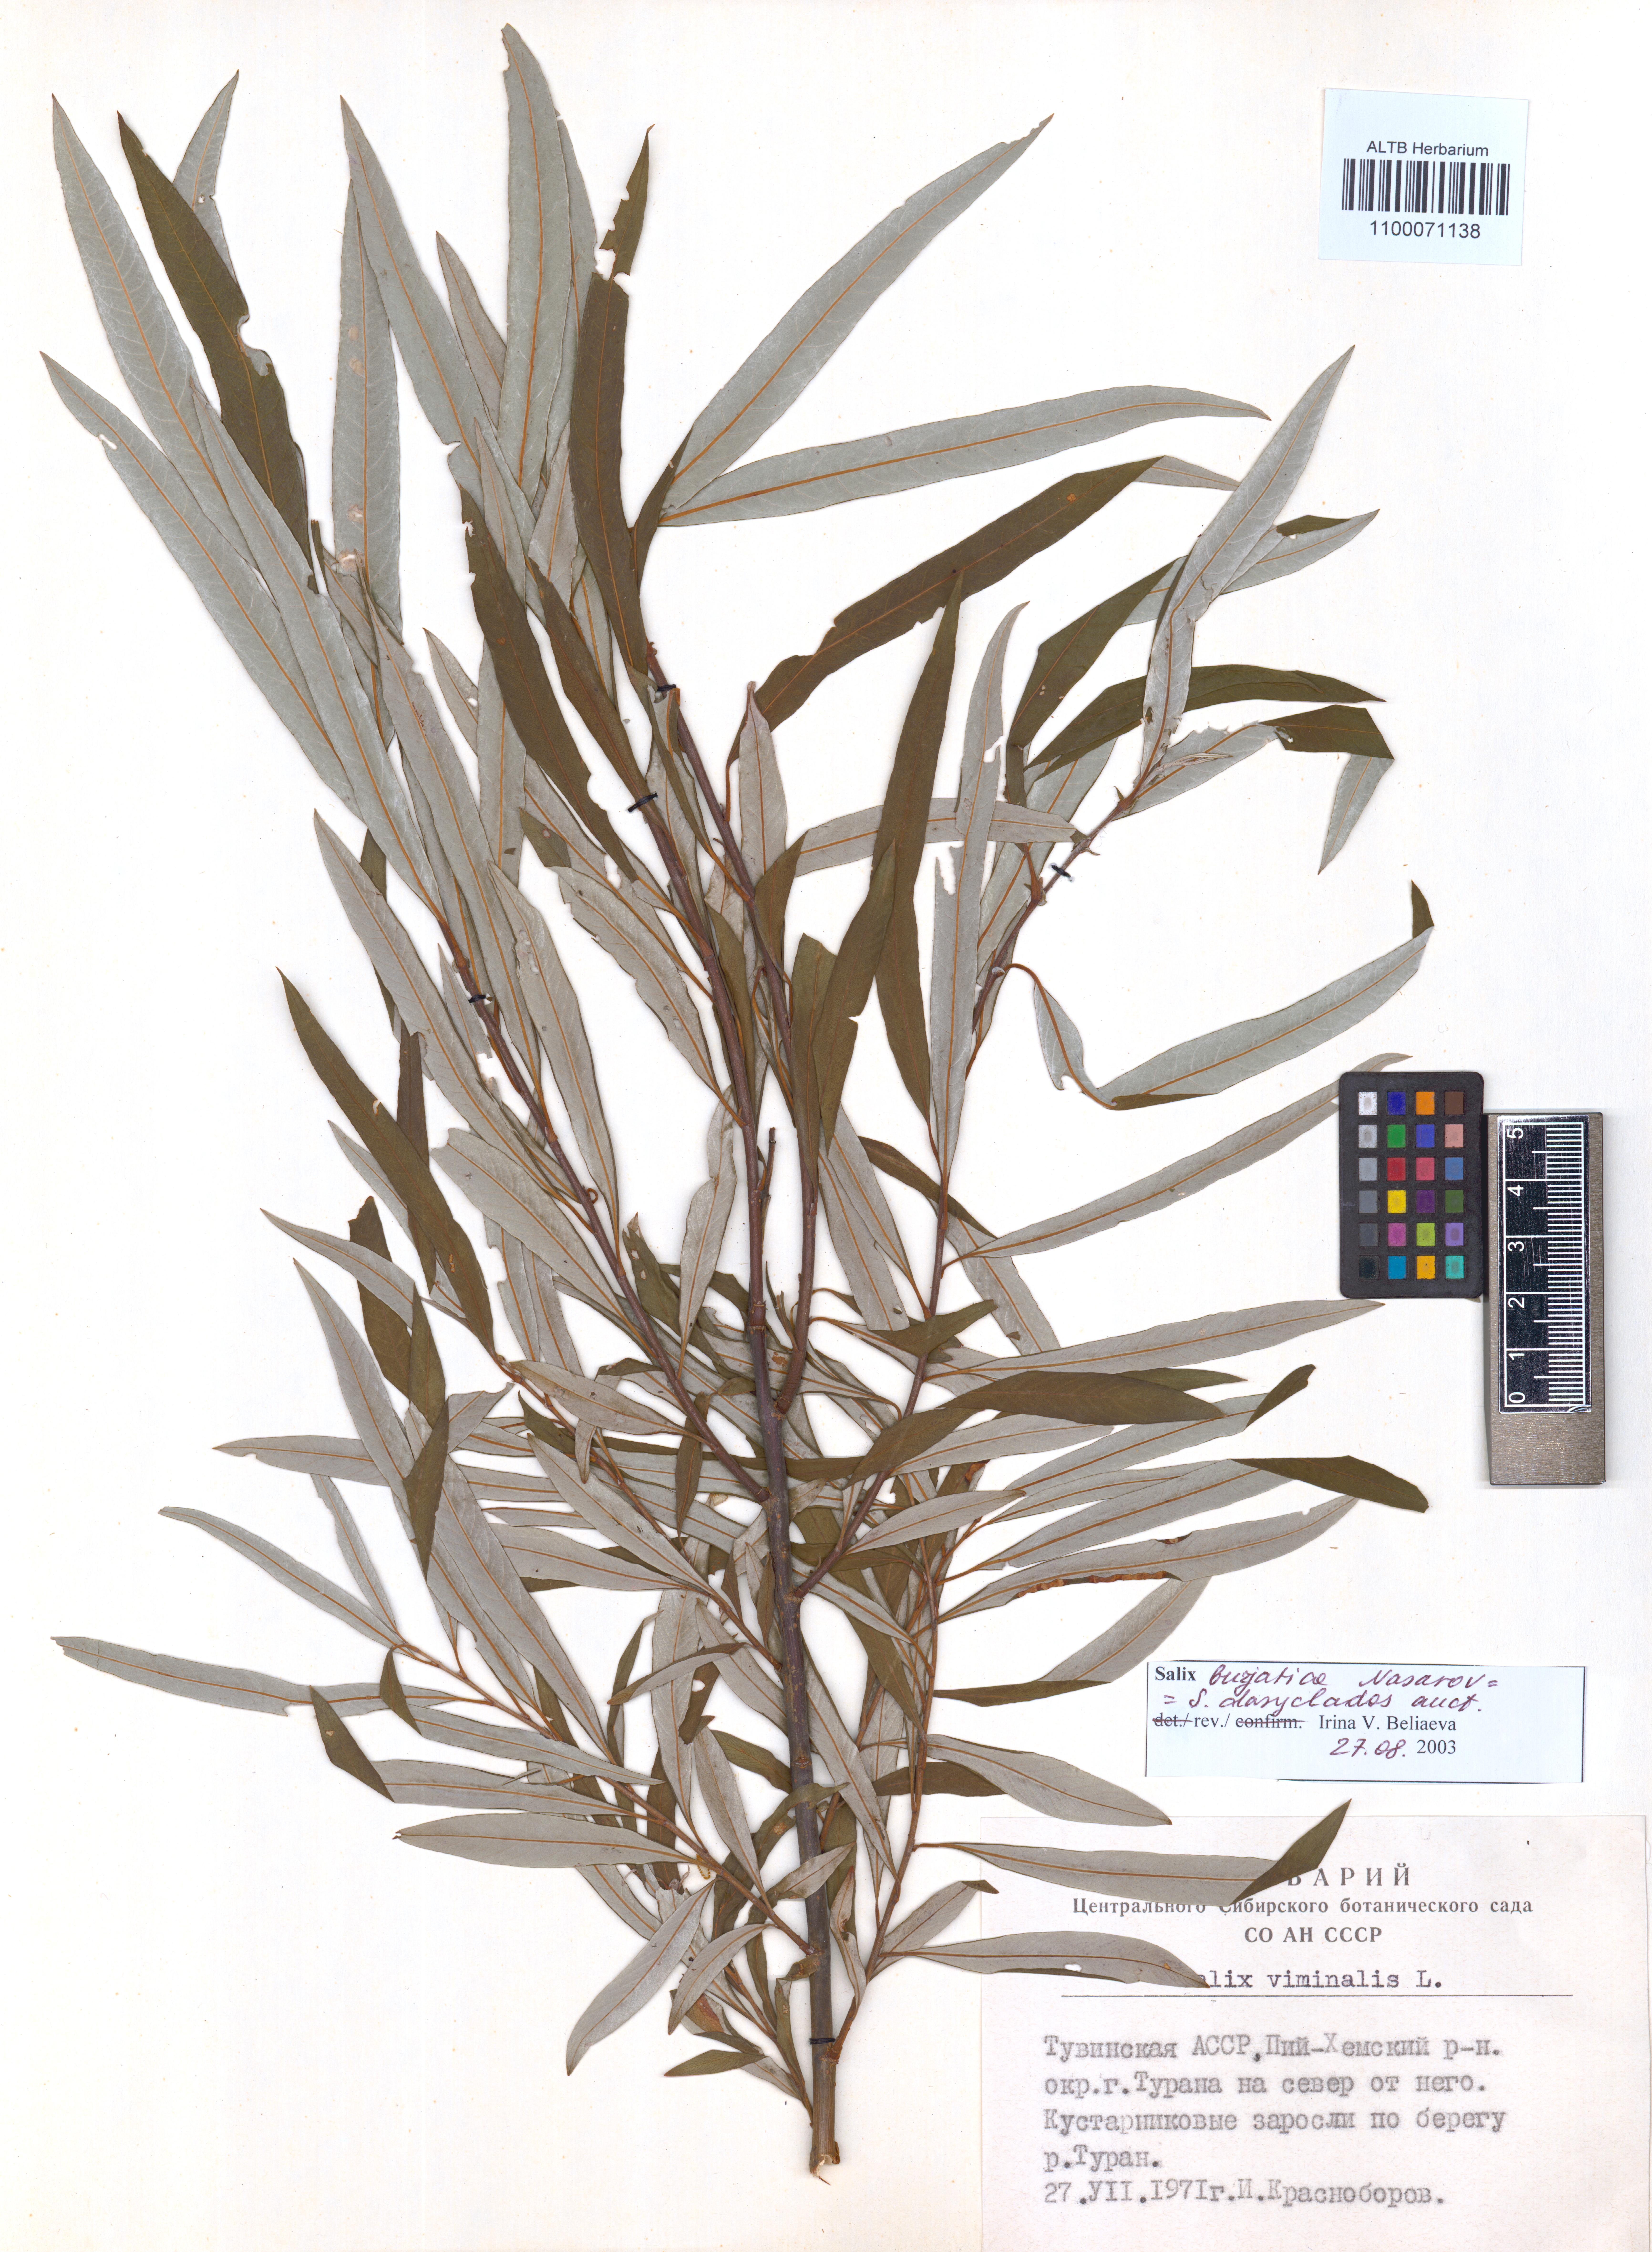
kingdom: Plantae
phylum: Tracheophyta
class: Magnoliopsida
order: Malpighiales
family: Salicaceae
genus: Salix
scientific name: Salix gmelinii
